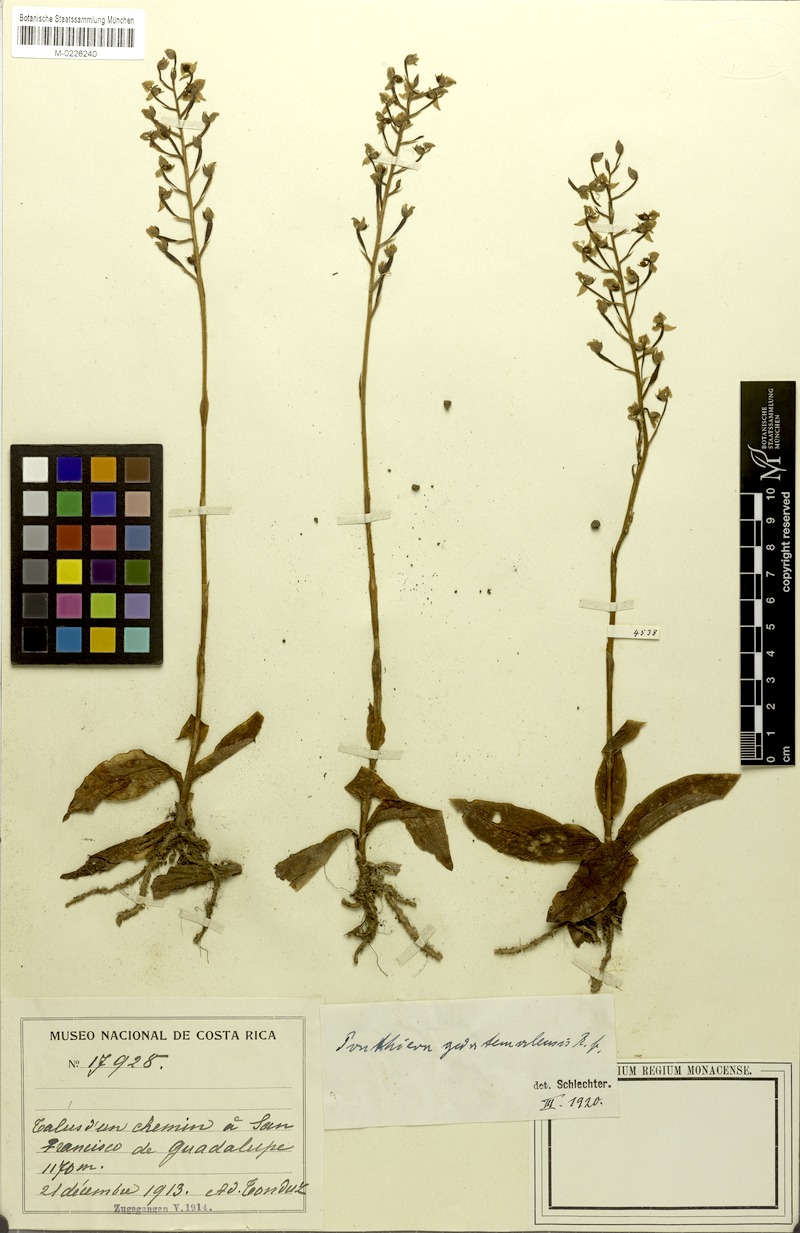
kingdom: Plantae
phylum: Tracheophyta
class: Liliopsida
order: Asparagales
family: Orchidaceae
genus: Ponthieva
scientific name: Ponthieva racemosa
